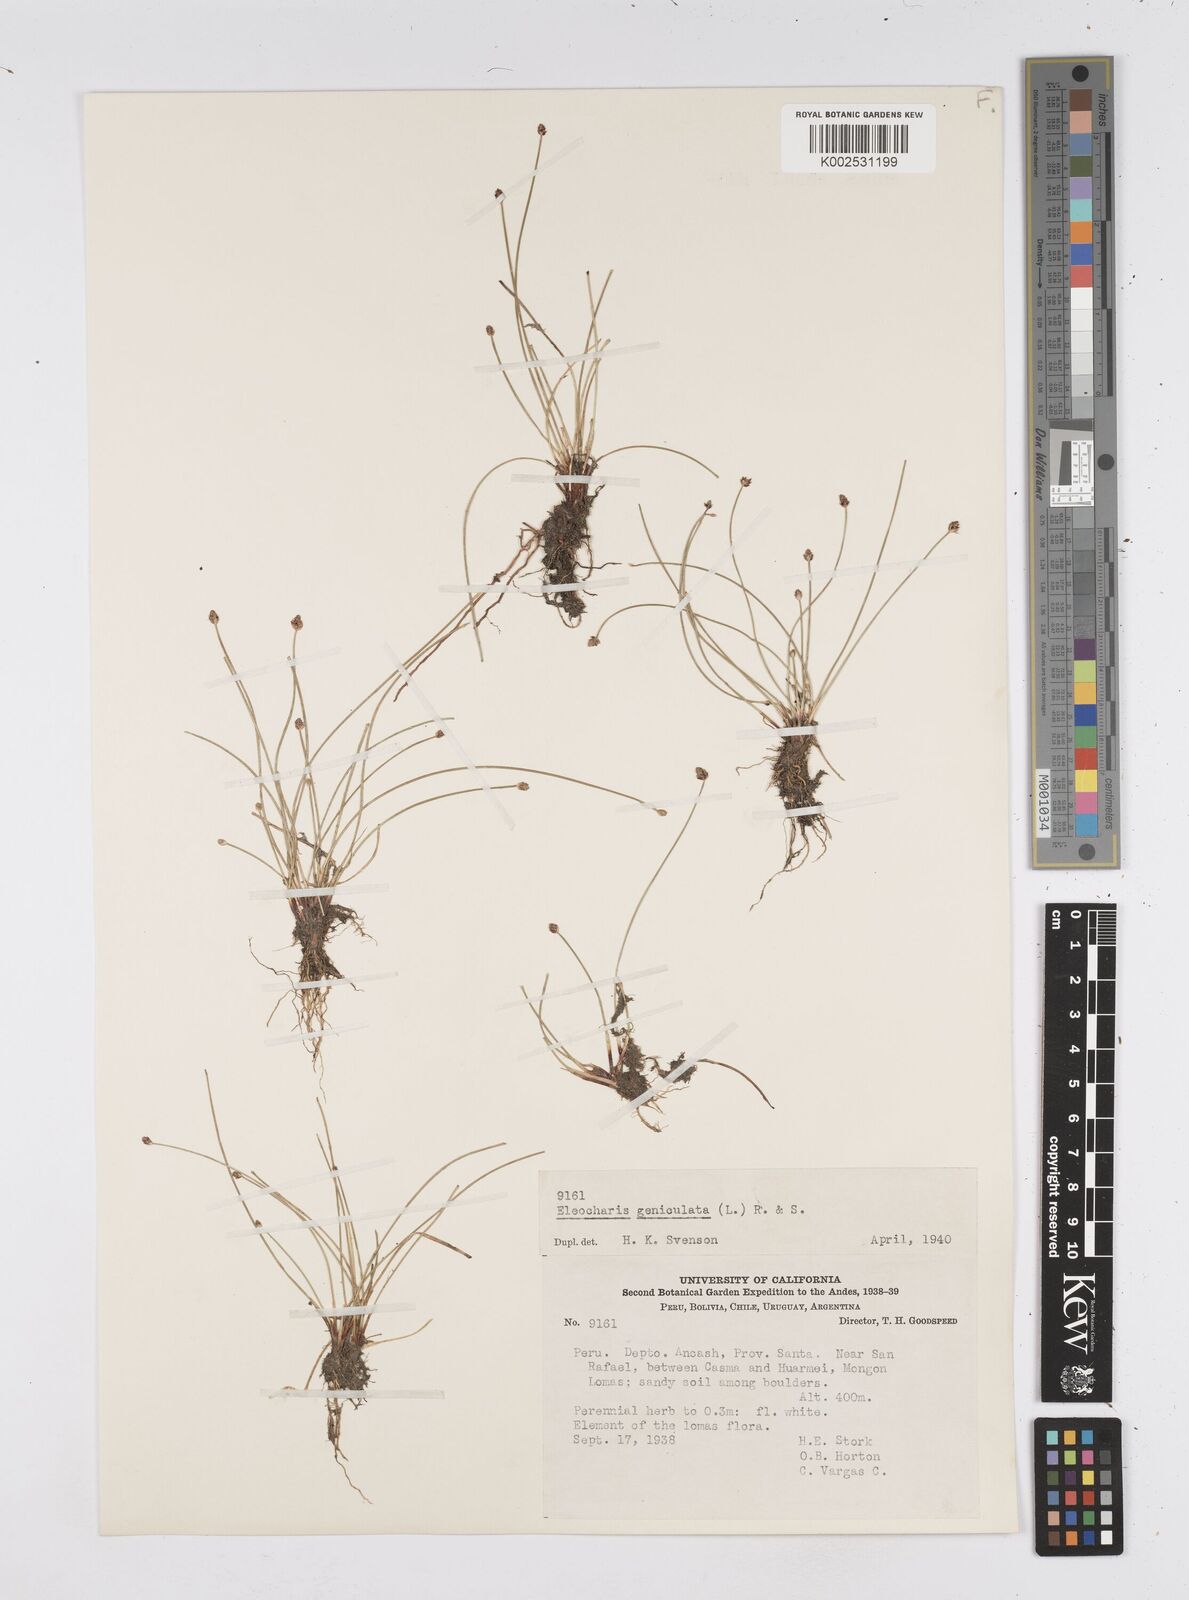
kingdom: Plantae
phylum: Tracheophyta
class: Liliopsida
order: Poales
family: Cyperaceae
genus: Eleocharis
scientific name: Eleocharis geniculata
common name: Canada spikesedge
